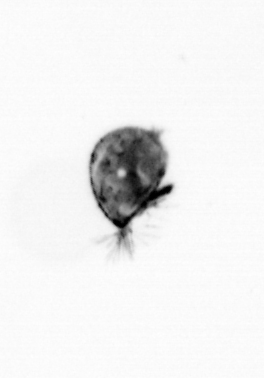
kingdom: Animalia
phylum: Arthropoda
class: Maxillopoda
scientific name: Maxillopoda
